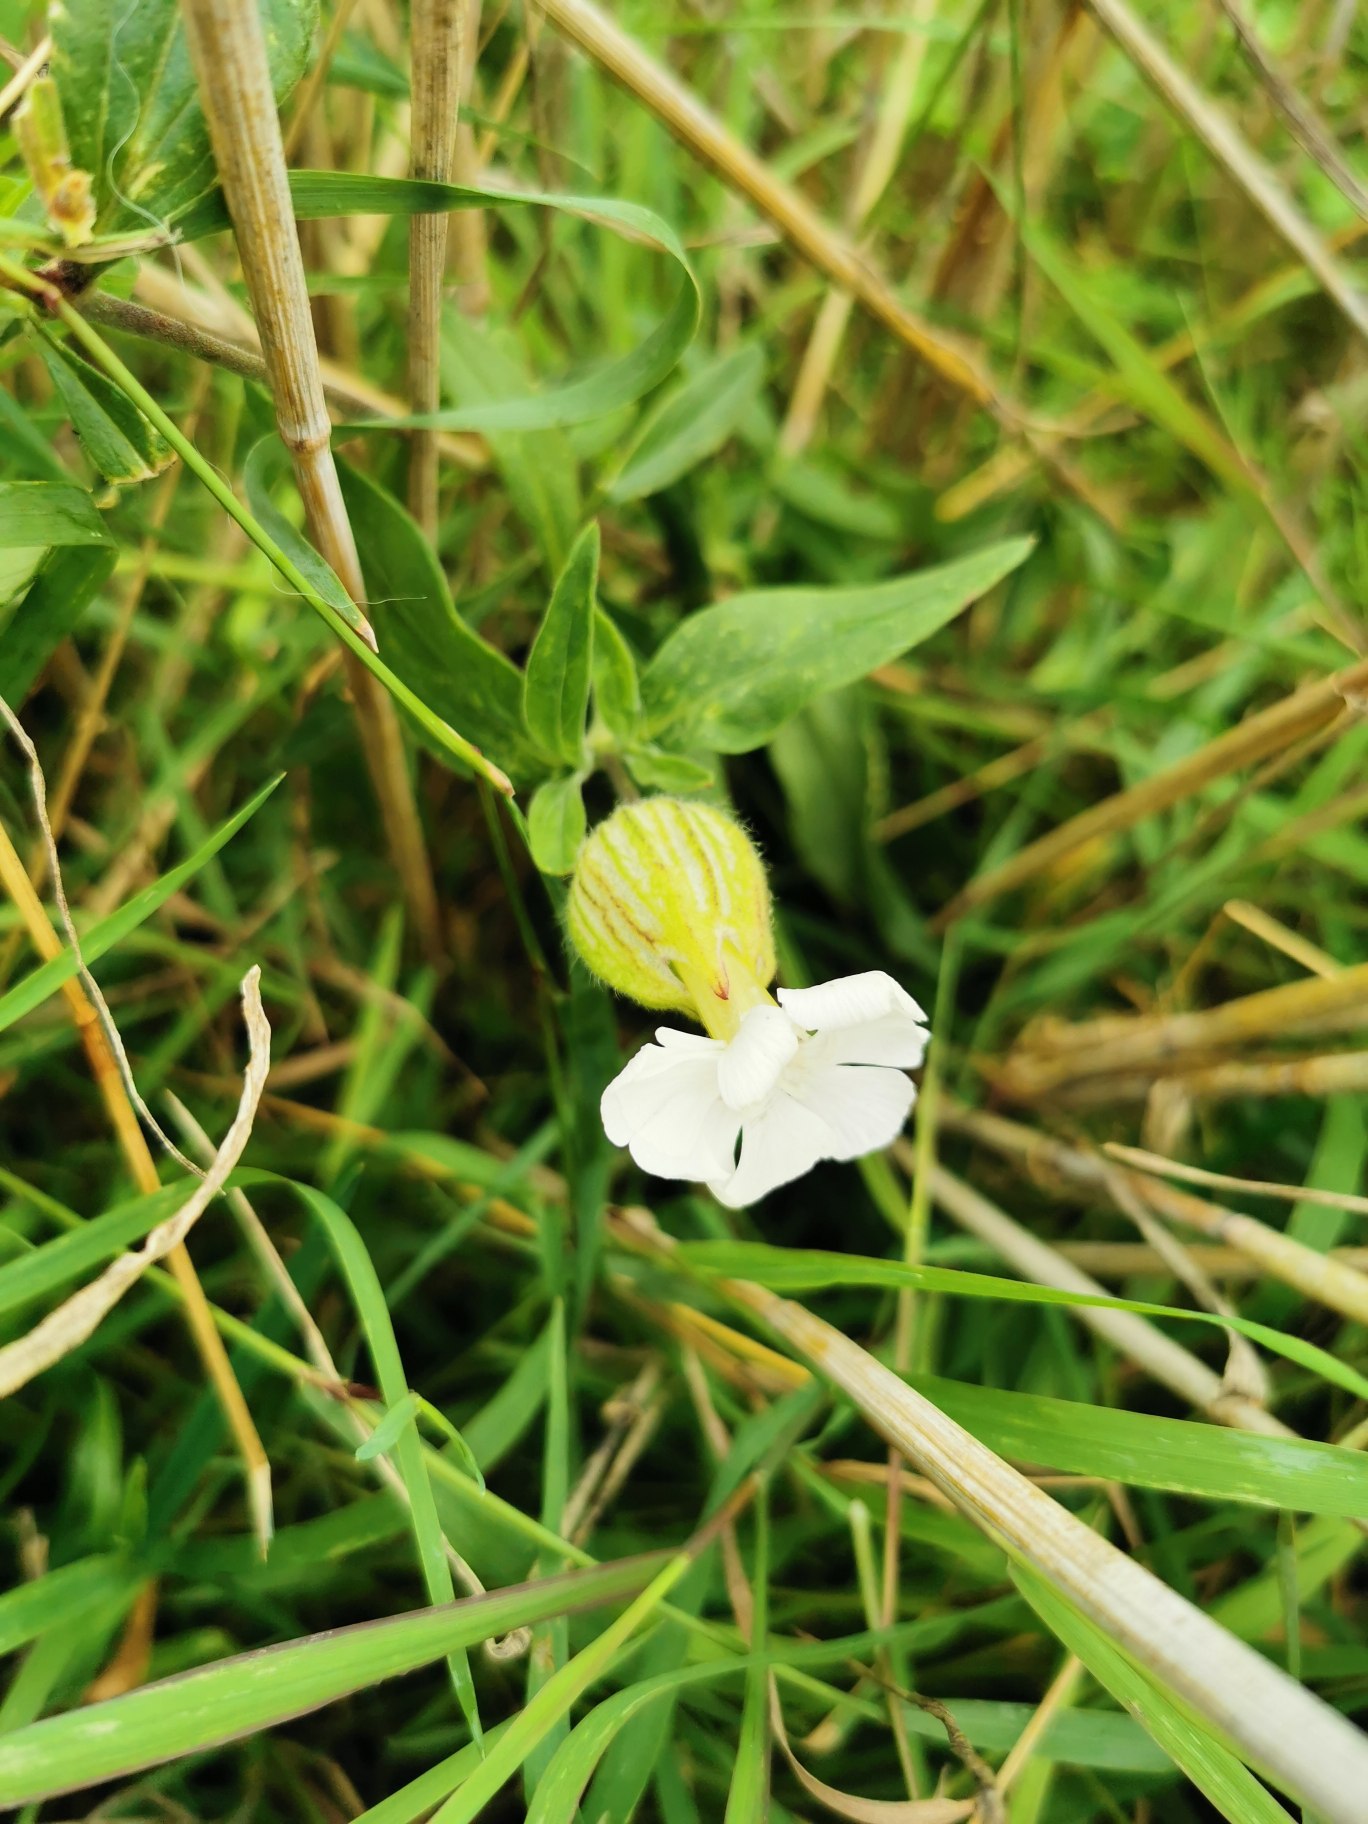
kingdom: Plantae
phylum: Tracheophyta
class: Magnoliopsida
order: Caryophyllales
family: Caryophyllaceae
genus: Silene
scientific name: Silene latifolia
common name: Aftenpragtstjerne
